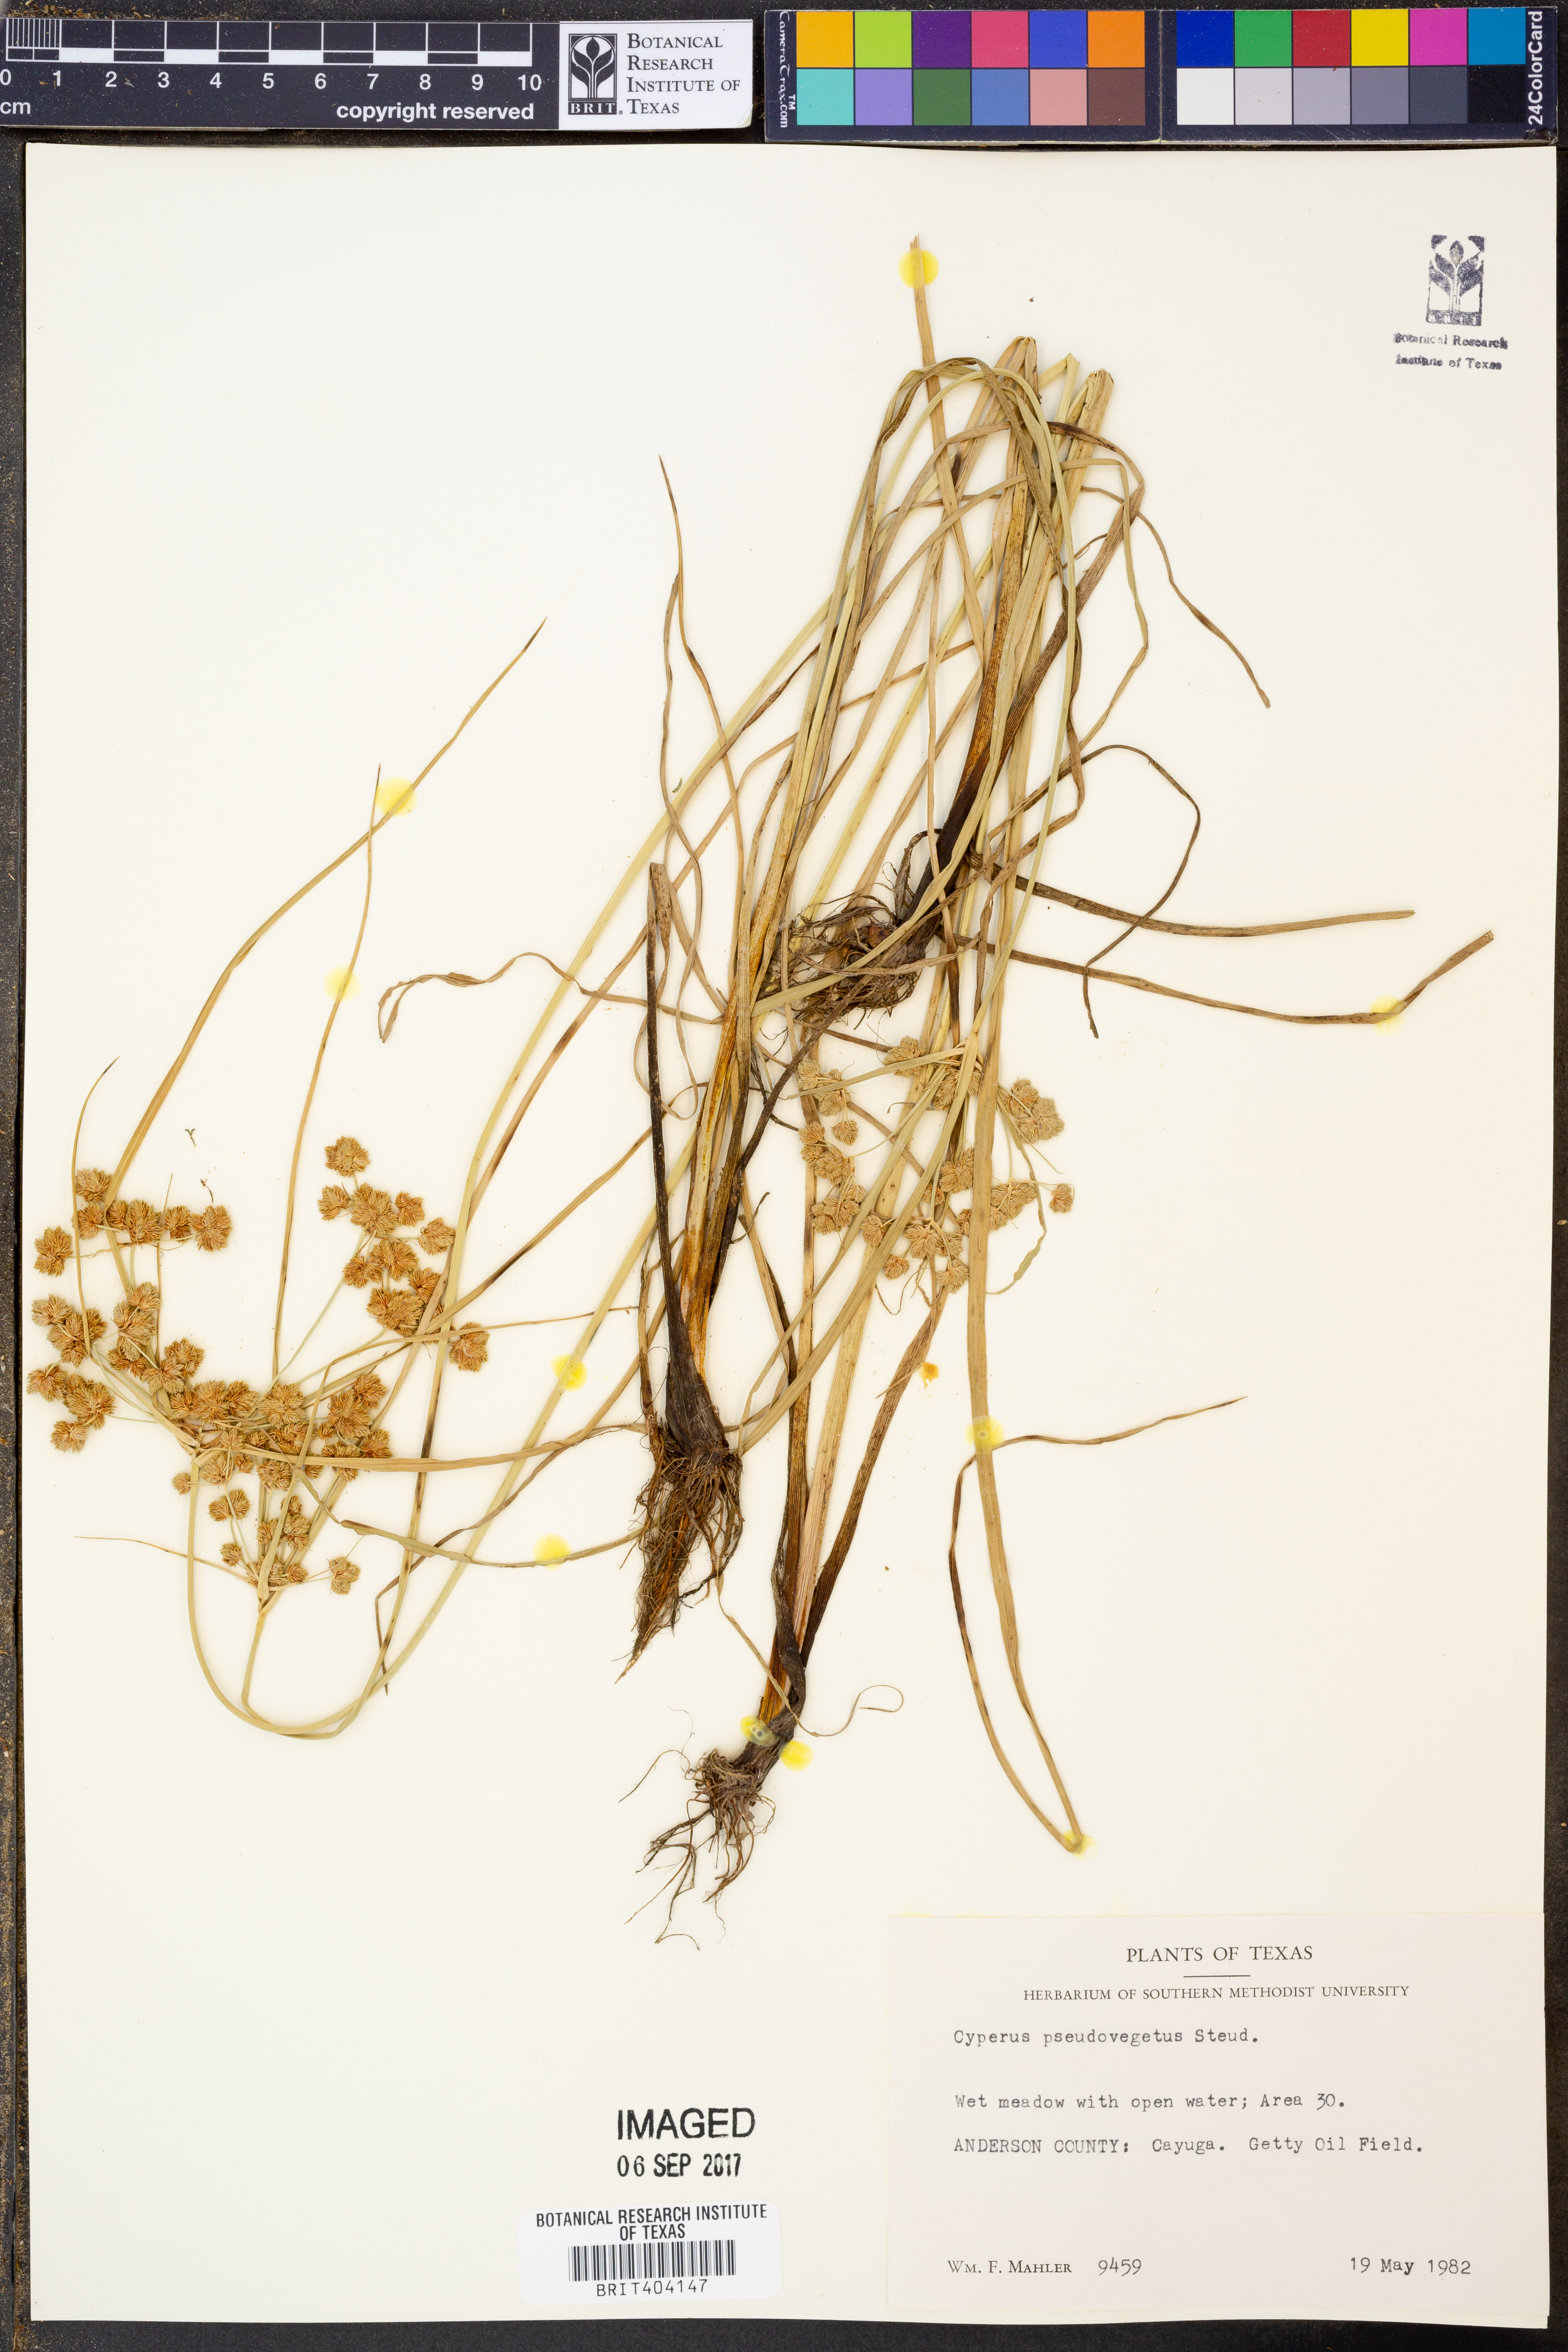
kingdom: Plantae
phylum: Tracheophyta
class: Liliopsida
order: Poales
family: Cyperaceae
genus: Cyperus
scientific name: Cyperus pseudovegetus
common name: Marsh flat sedge
